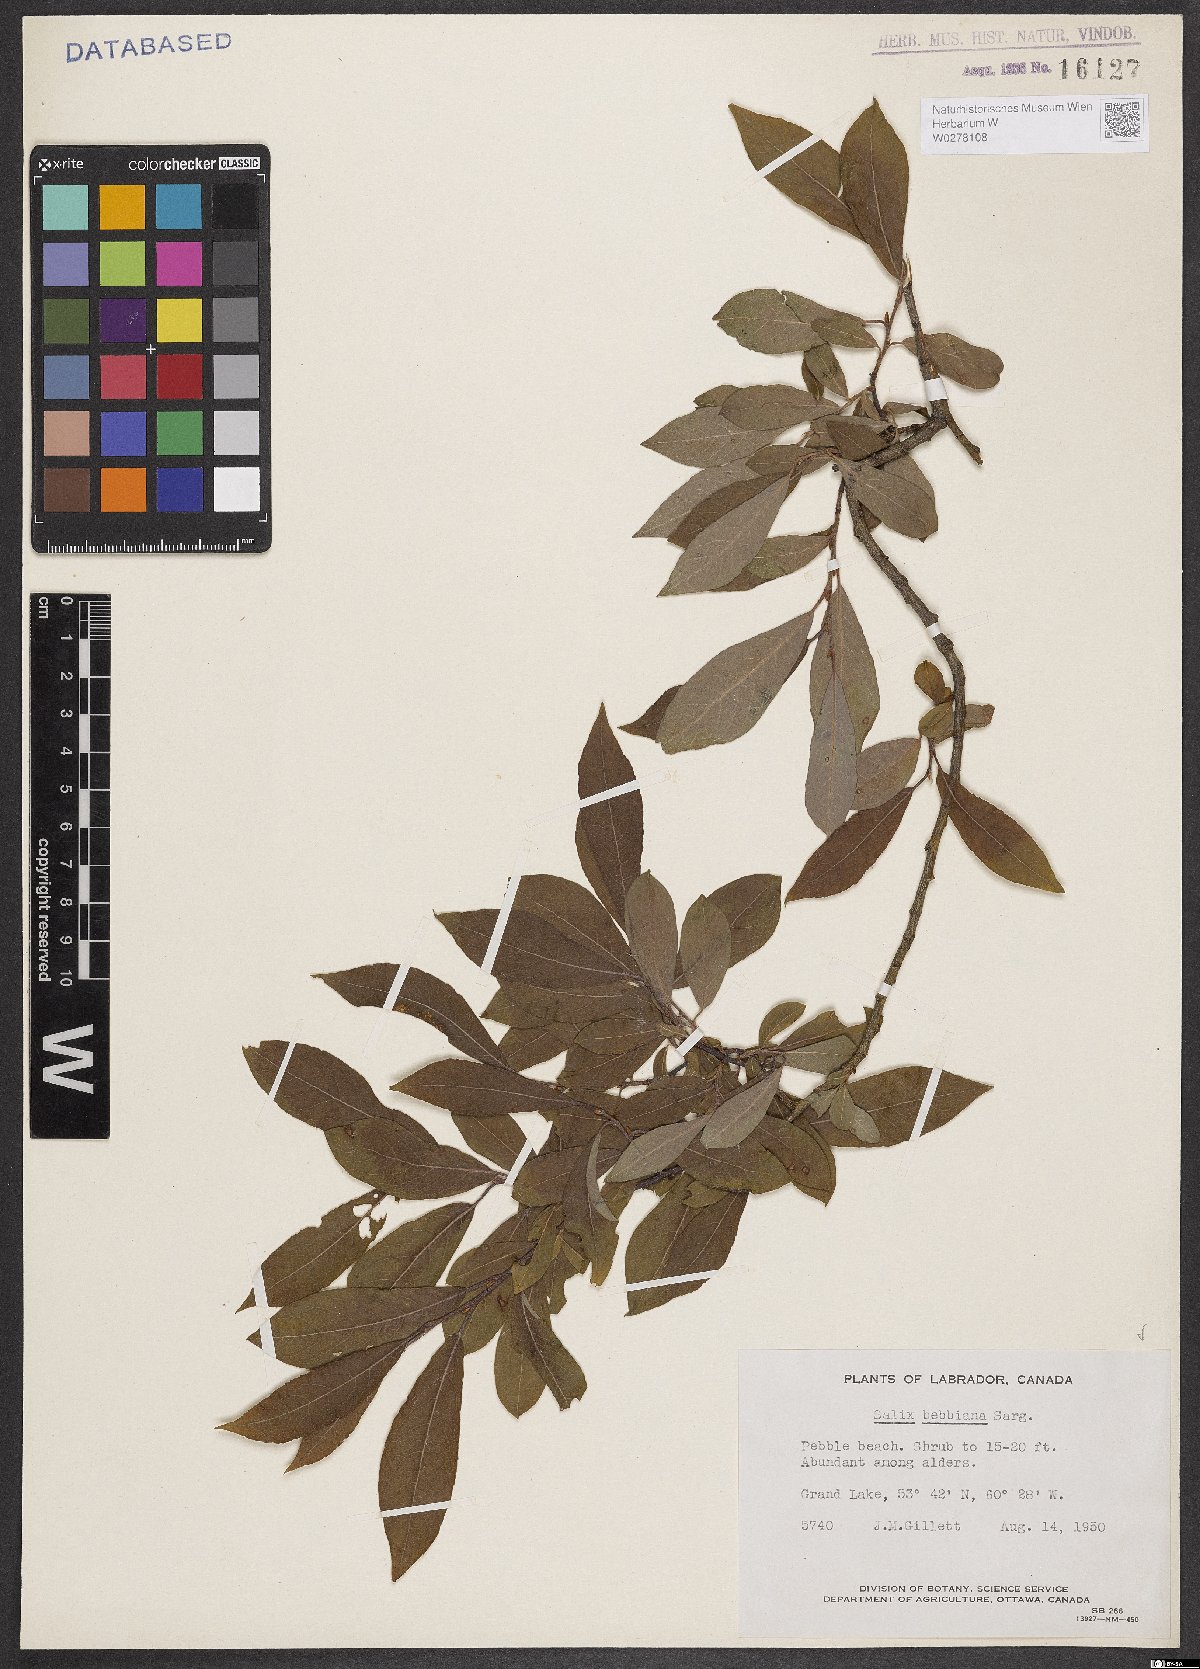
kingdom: Plantae
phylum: Tracheophyta
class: Magnoliopsida
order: Malpighiales
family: Salicaceae
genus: Salix
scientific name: Salix bebbiana
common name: Bebb's willow
